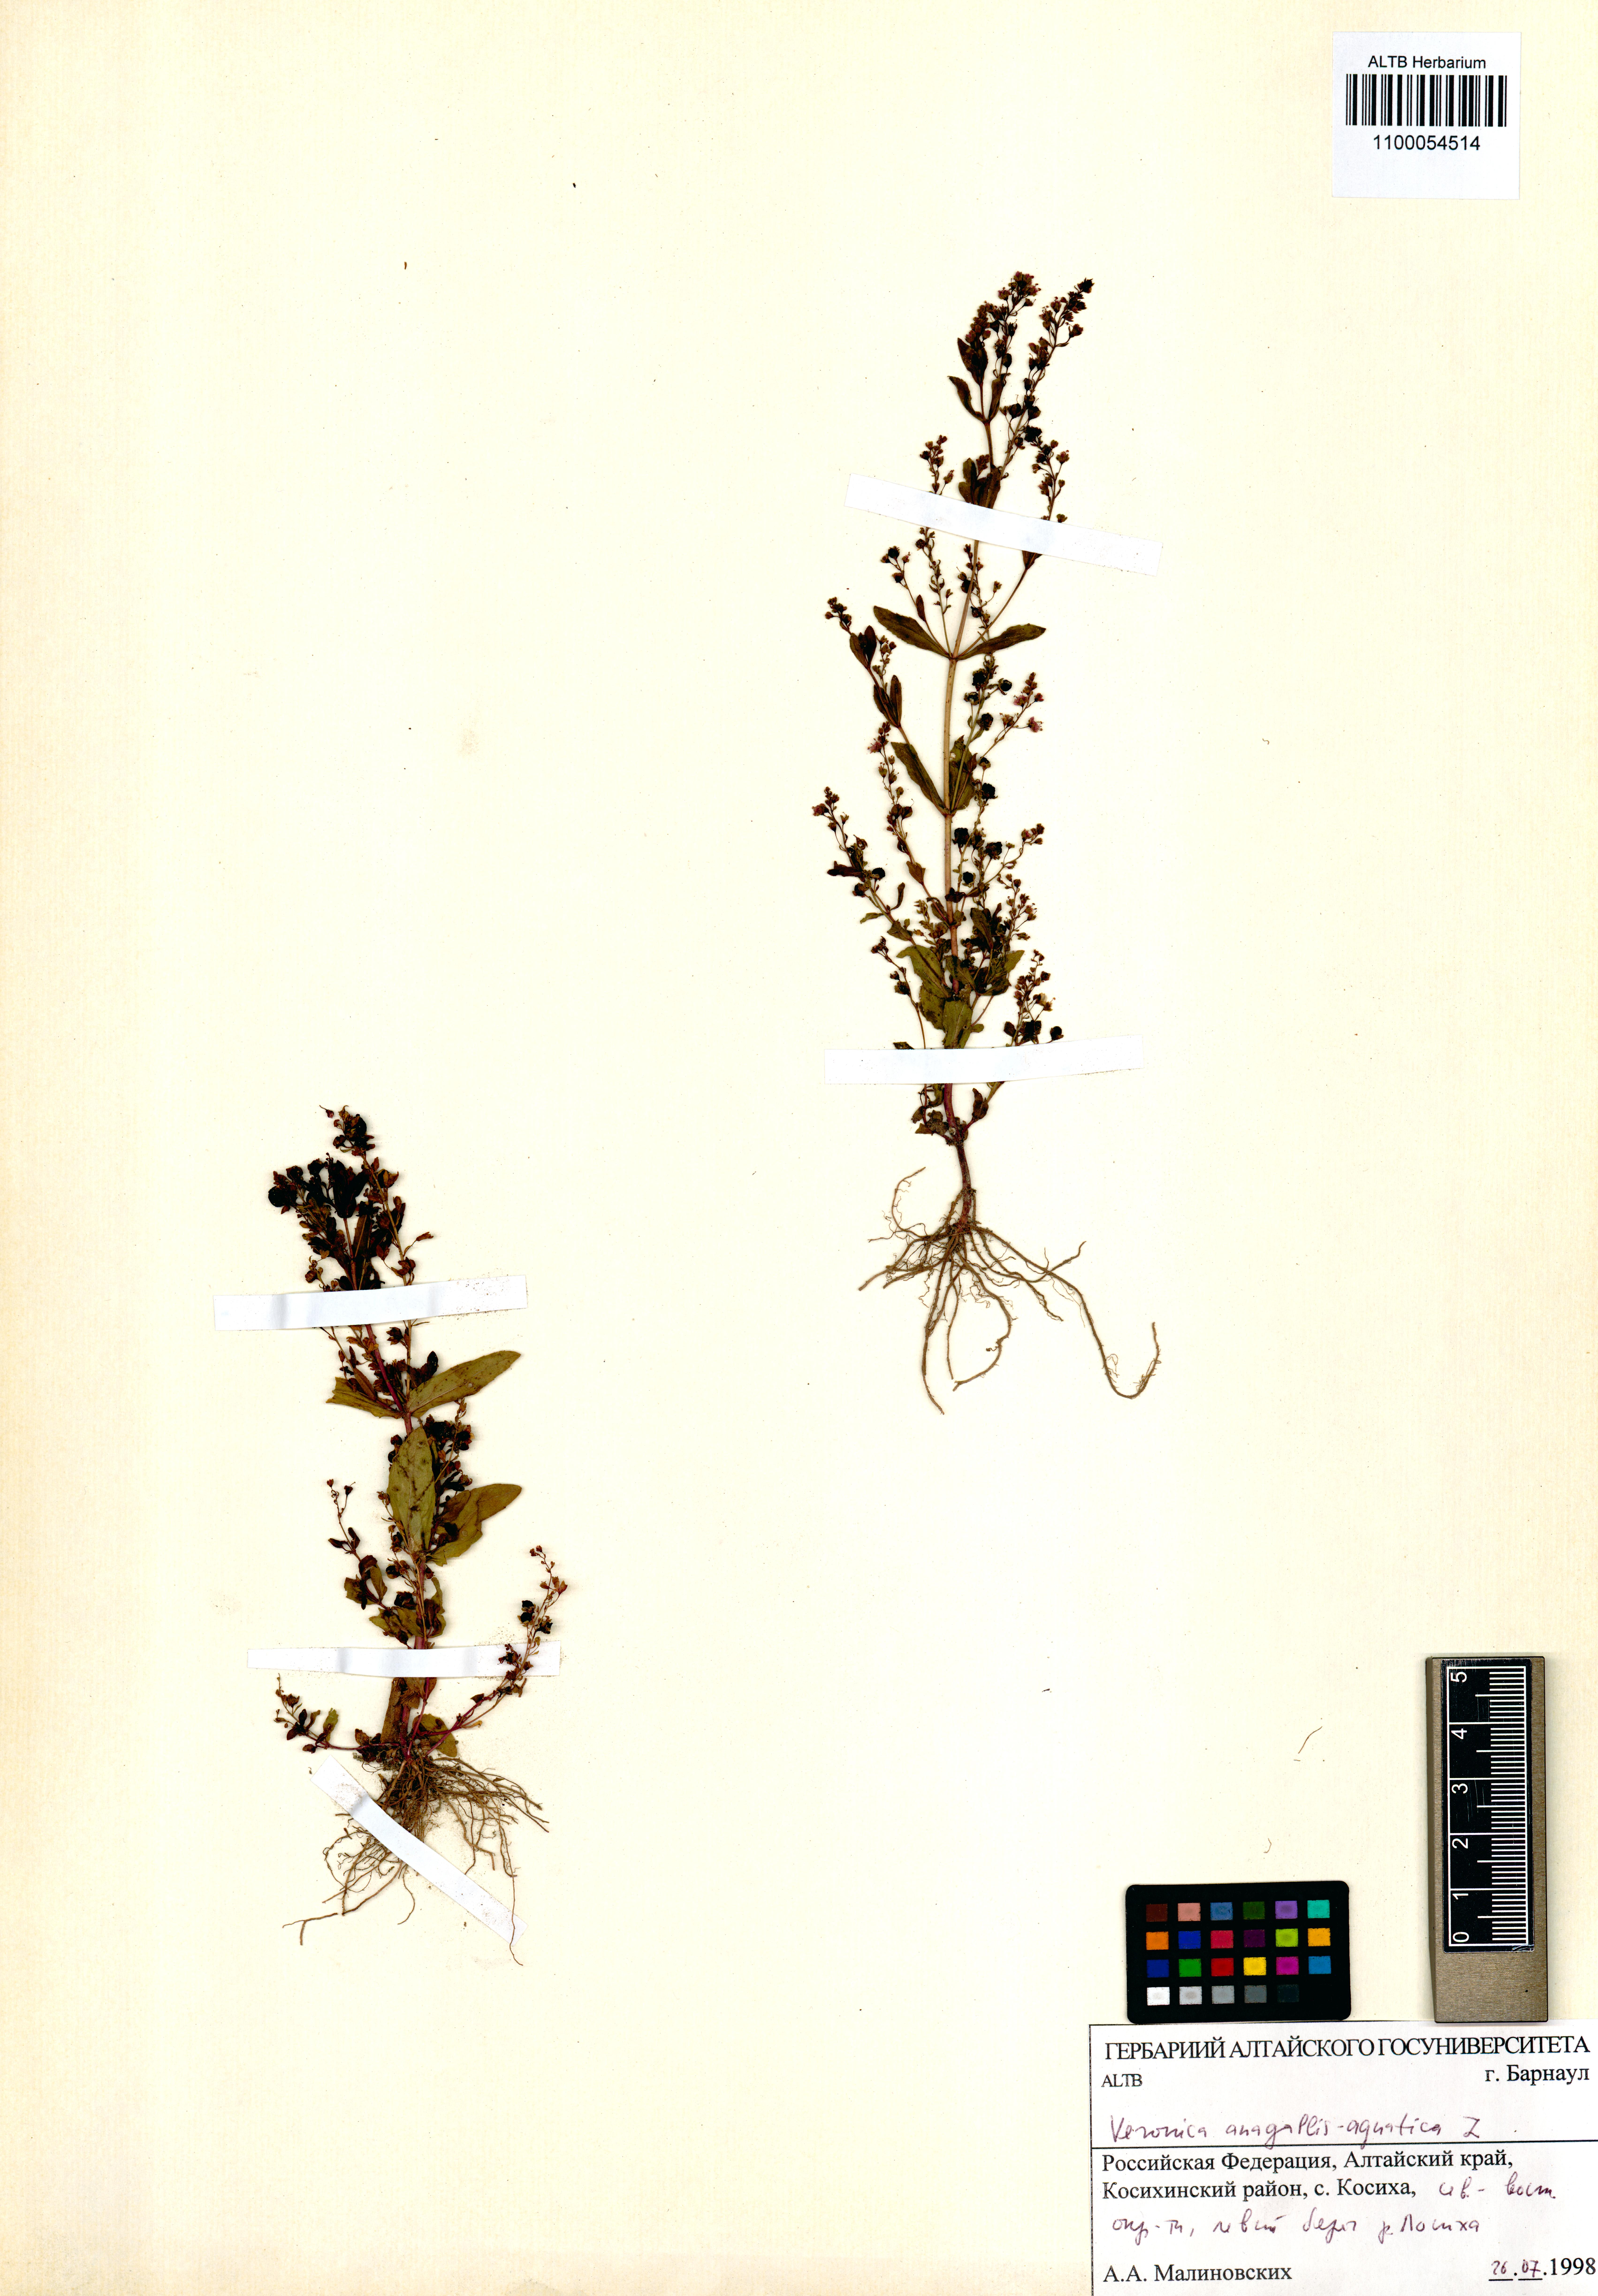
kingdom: Plantae
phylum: Tracheophyta
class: Magnoliopsida
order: Lamiales
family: Plantaginaceae
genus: Veronica
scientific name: Veronica anagallis-aquatica
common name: Water speedwell
